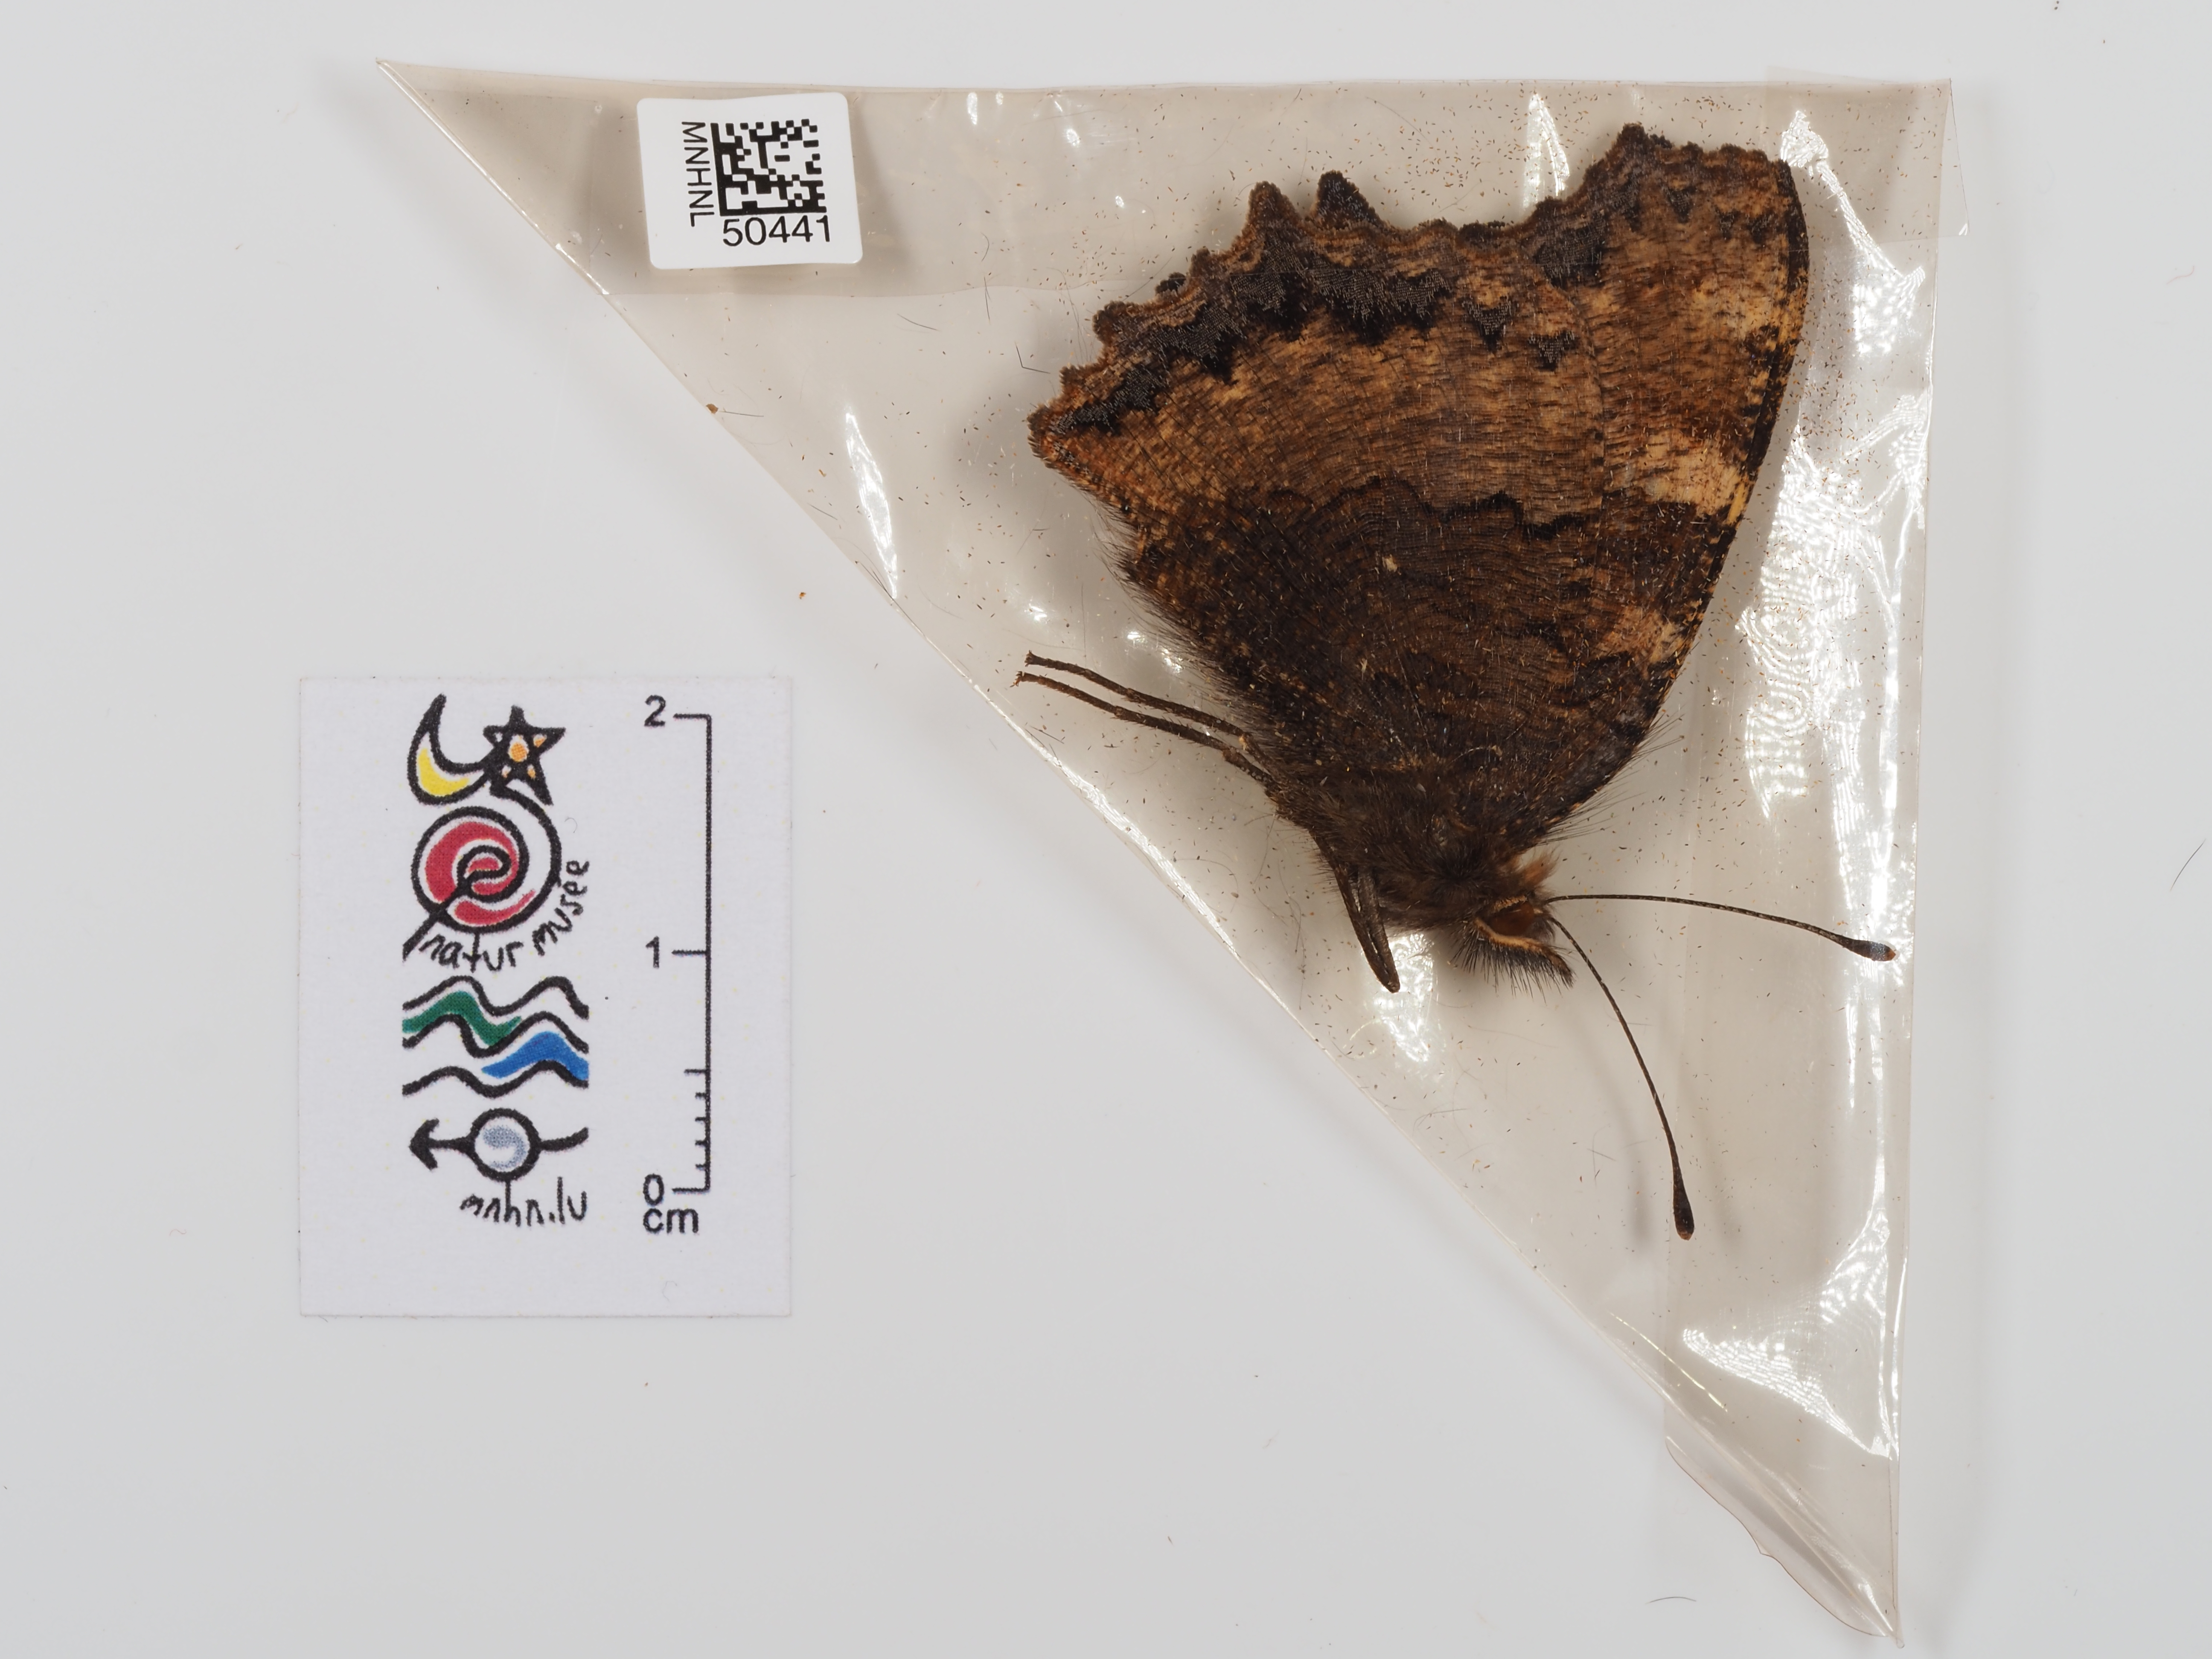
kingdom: Animalia
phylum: Arthropoda
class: Insecta
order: Lepidoptera
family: Nymphalidae
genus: Nymphalis
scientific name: Nymphalis polychloros
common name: Large tortoiseshell
